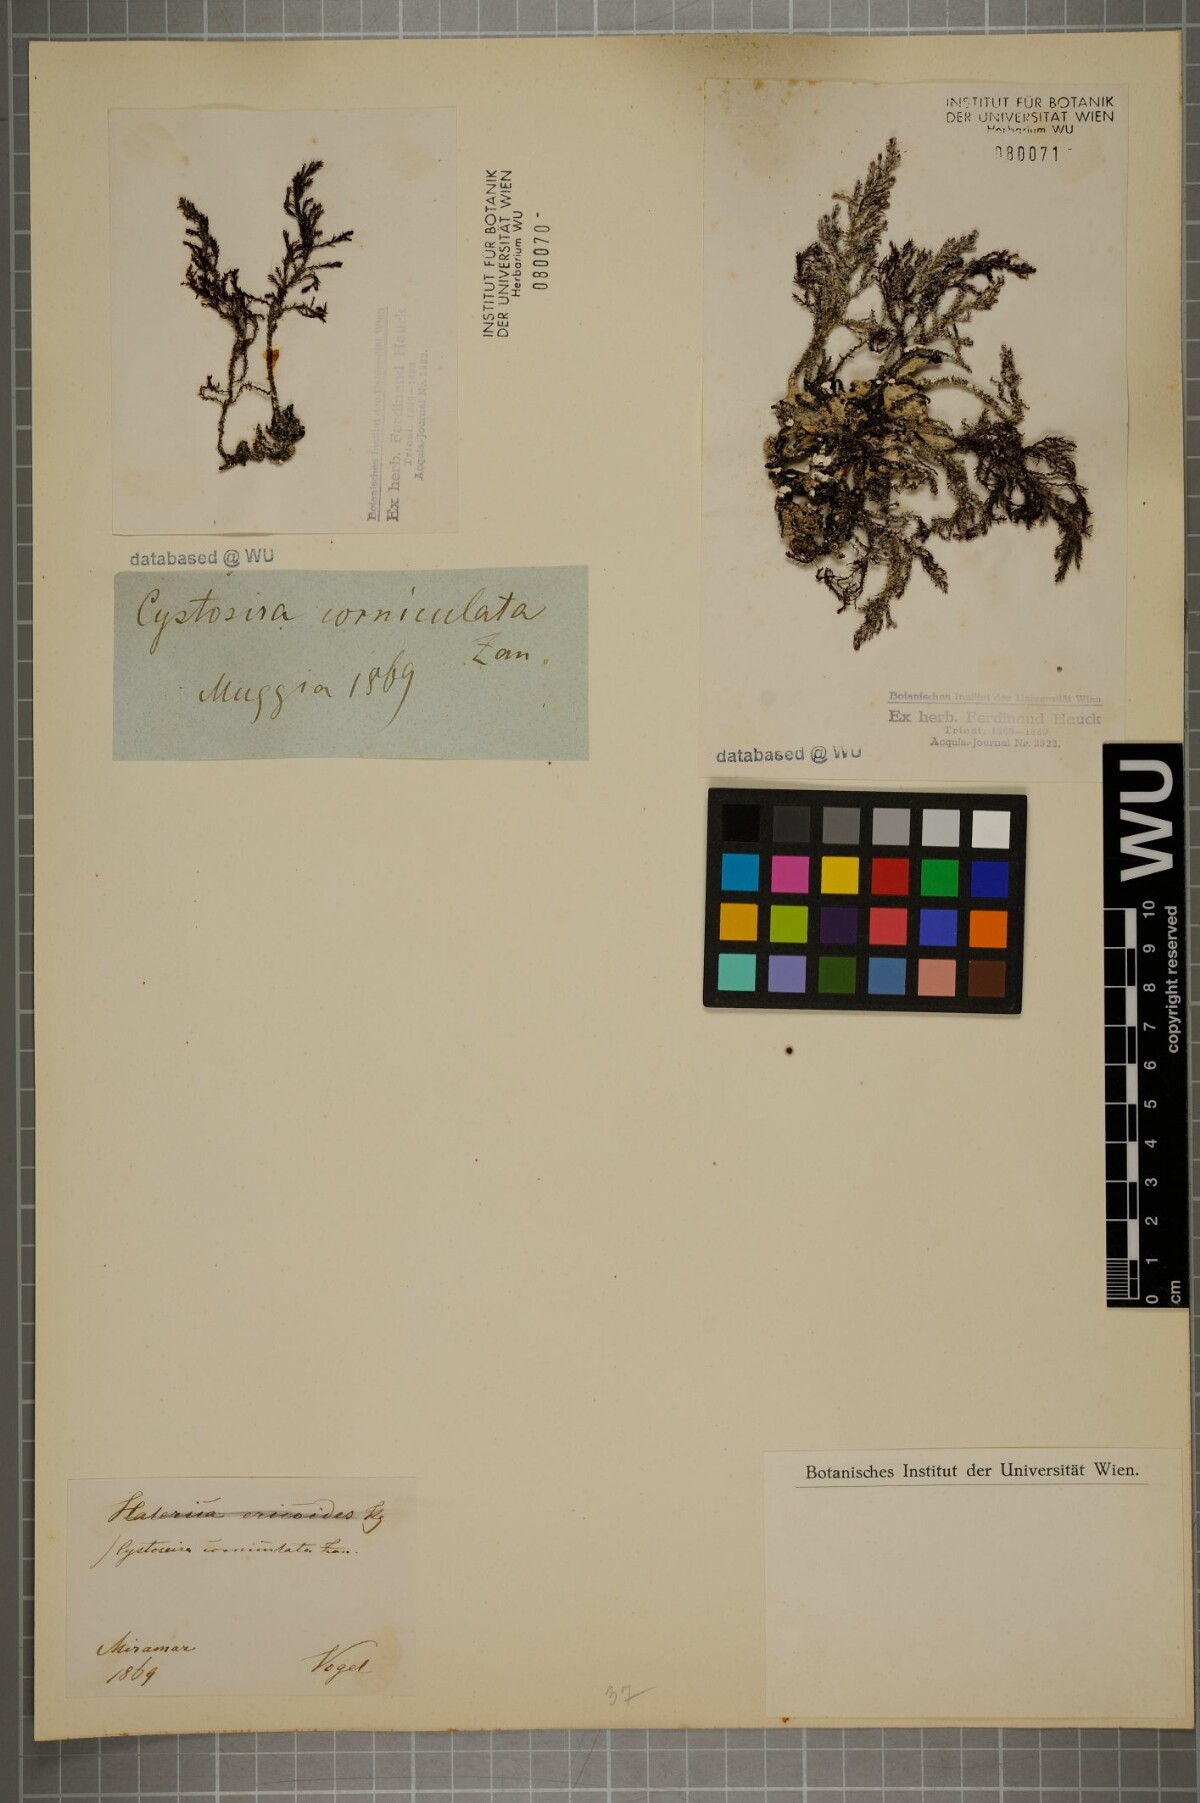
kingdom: Chromista
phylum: Ochrophyta
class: Phaeophyceae
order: Fucales
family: Sargassaceae
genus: Cystoseira
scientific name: Cystoseira corniculata
